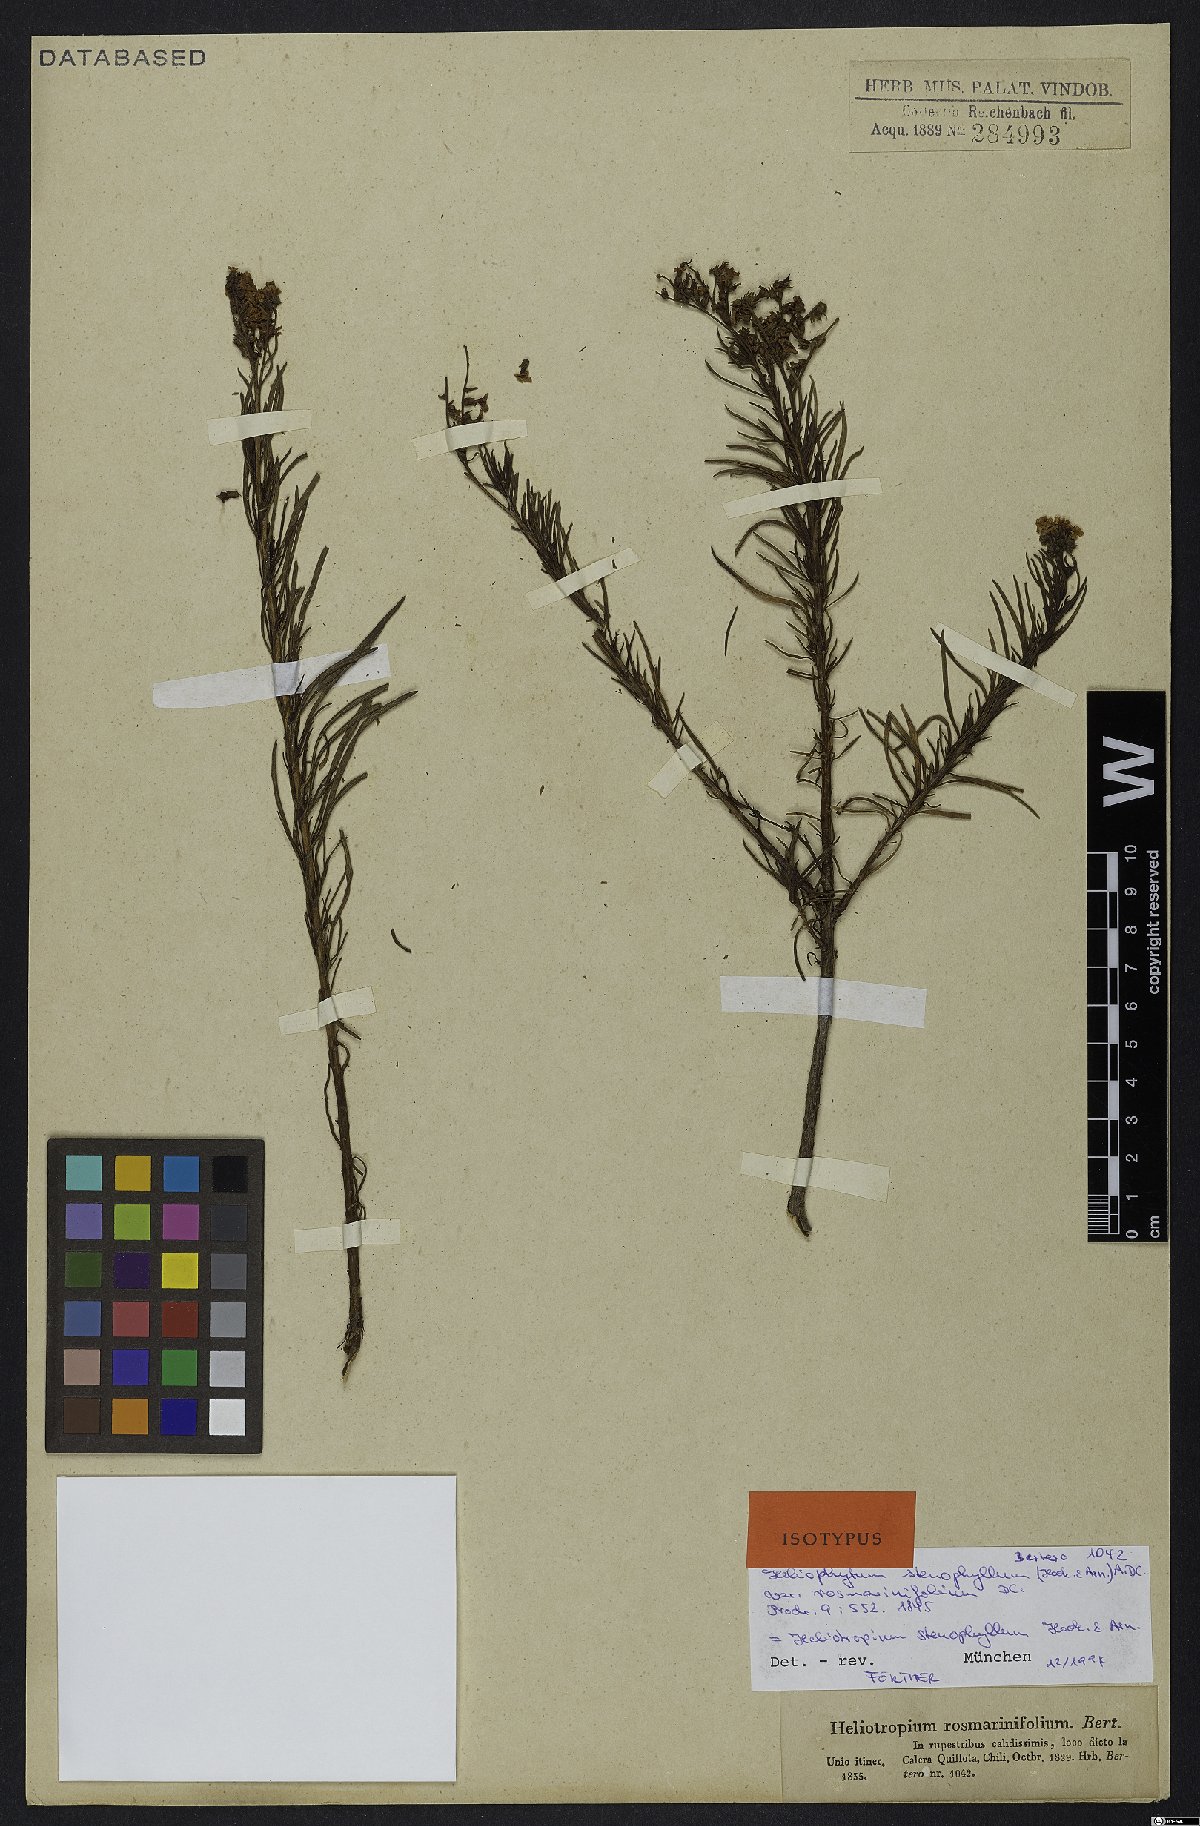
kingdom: Plantae
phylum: Tracheophyta
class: Magnoliopsida
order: Boraginales
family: Heliotropiaceae
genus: Heliotropium
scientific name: Heliotropium stenophyllum
